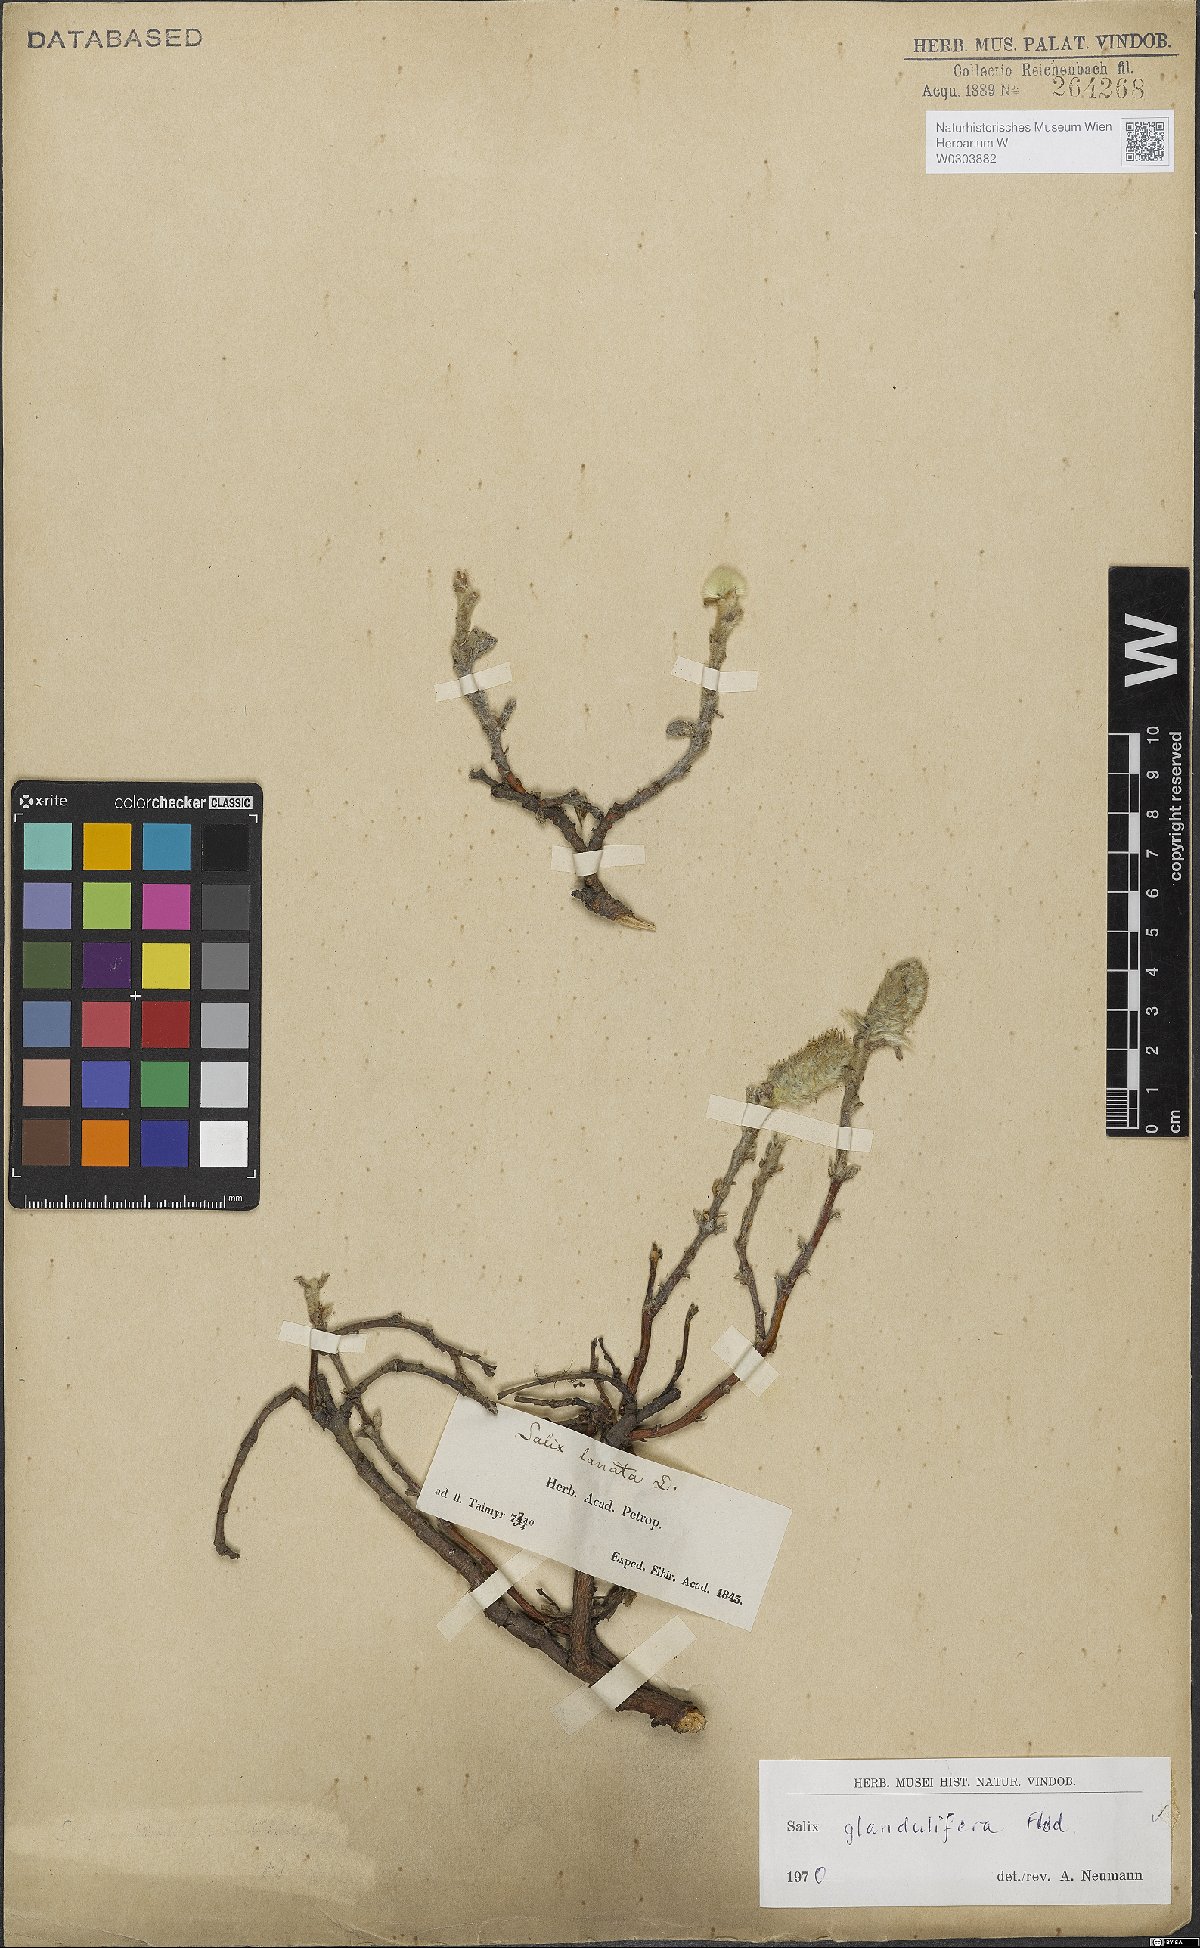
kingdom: Plantae
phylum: Tracheophyta
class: Magnoliopsida
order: Malpighiales
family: Salicaceae
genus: Salix
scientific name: Salix lanata
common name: Woolly willow
